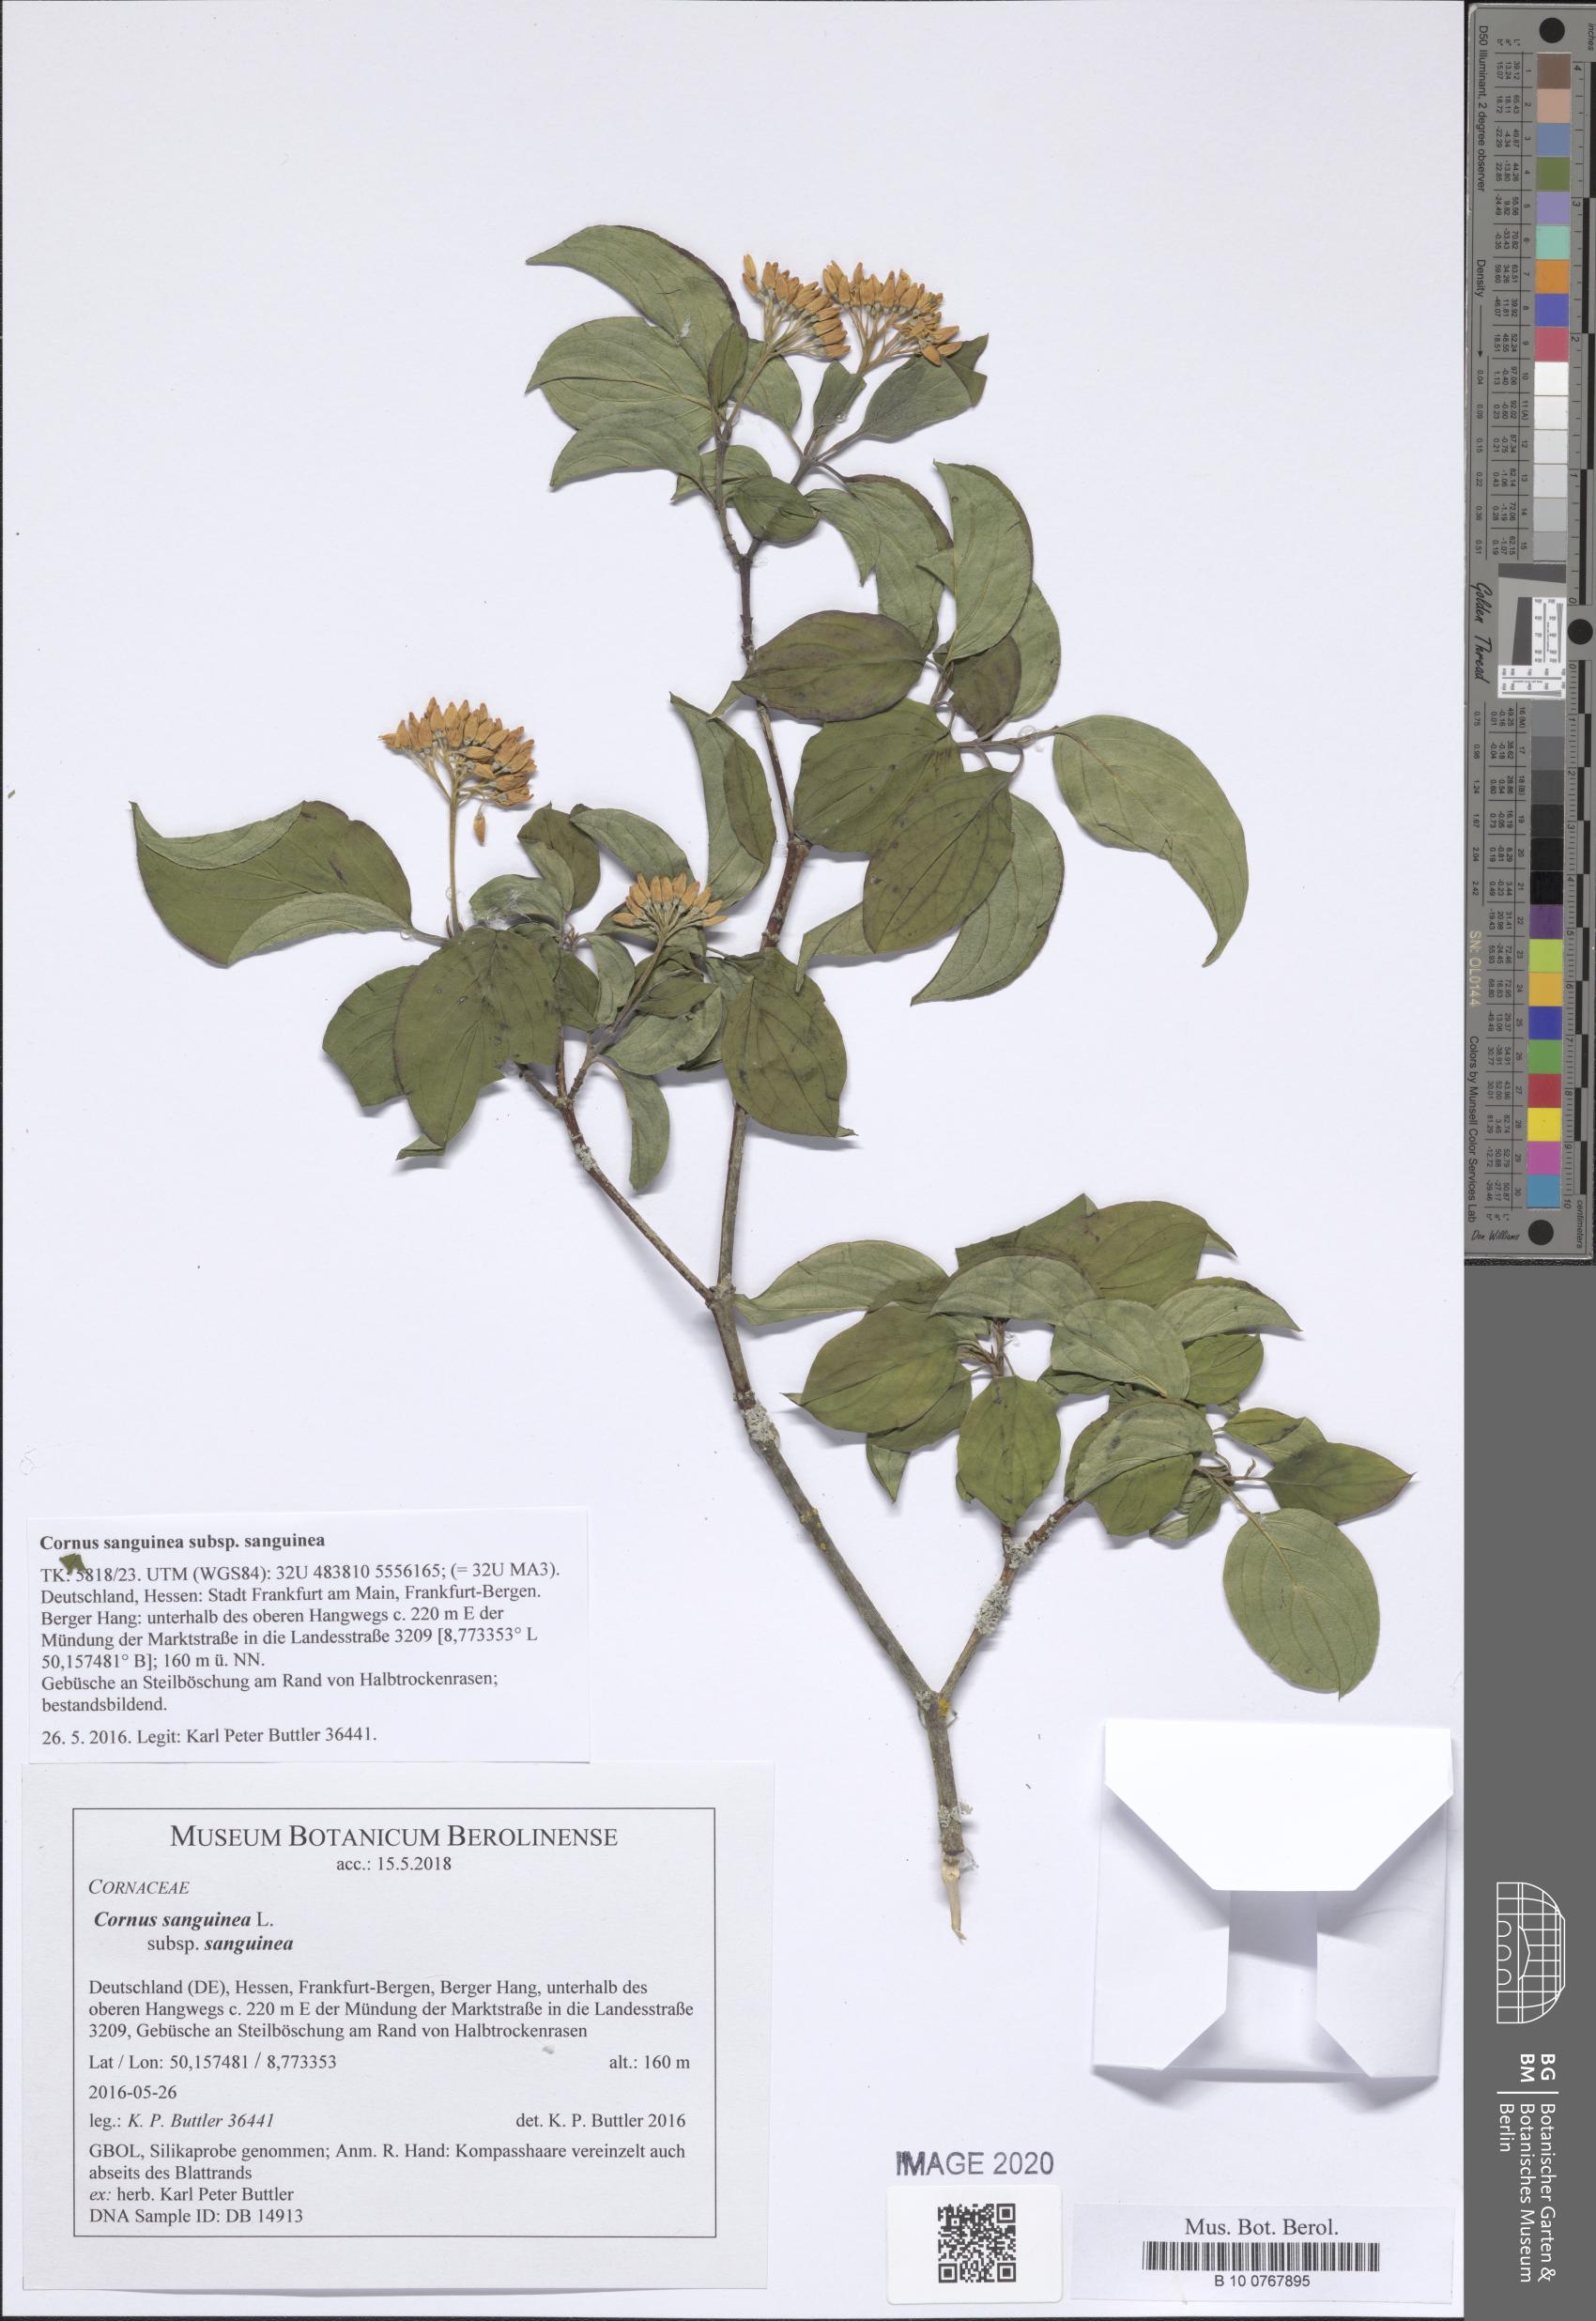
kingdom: Plantae
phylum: Tracheophyta
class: Magnoliopsida
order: Cornales
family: Cornaceae
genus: Cornus
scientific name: Cornus sanguinea
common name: Dogwood
